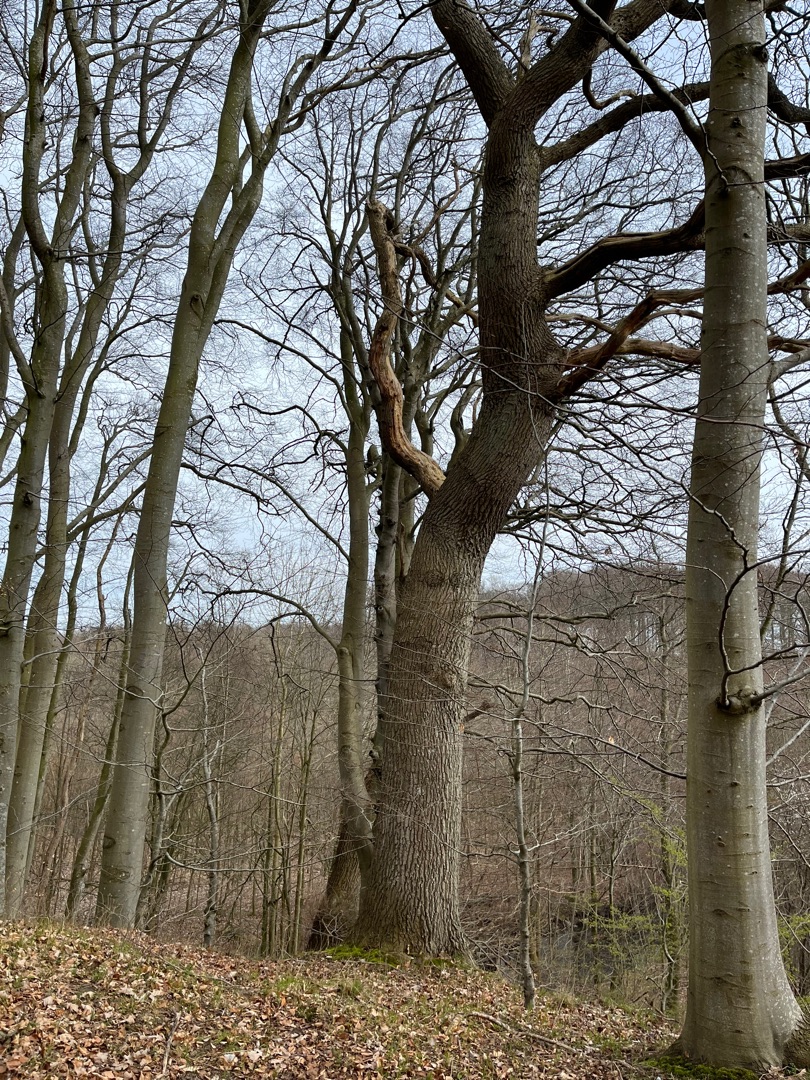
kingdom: Plantae
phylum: Tracheophyta
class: Magnoliopsida
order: Fagales
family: Fagaceae
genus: Quercus
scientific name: Quercus robur
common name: Stilk-eg/almindelig eg
